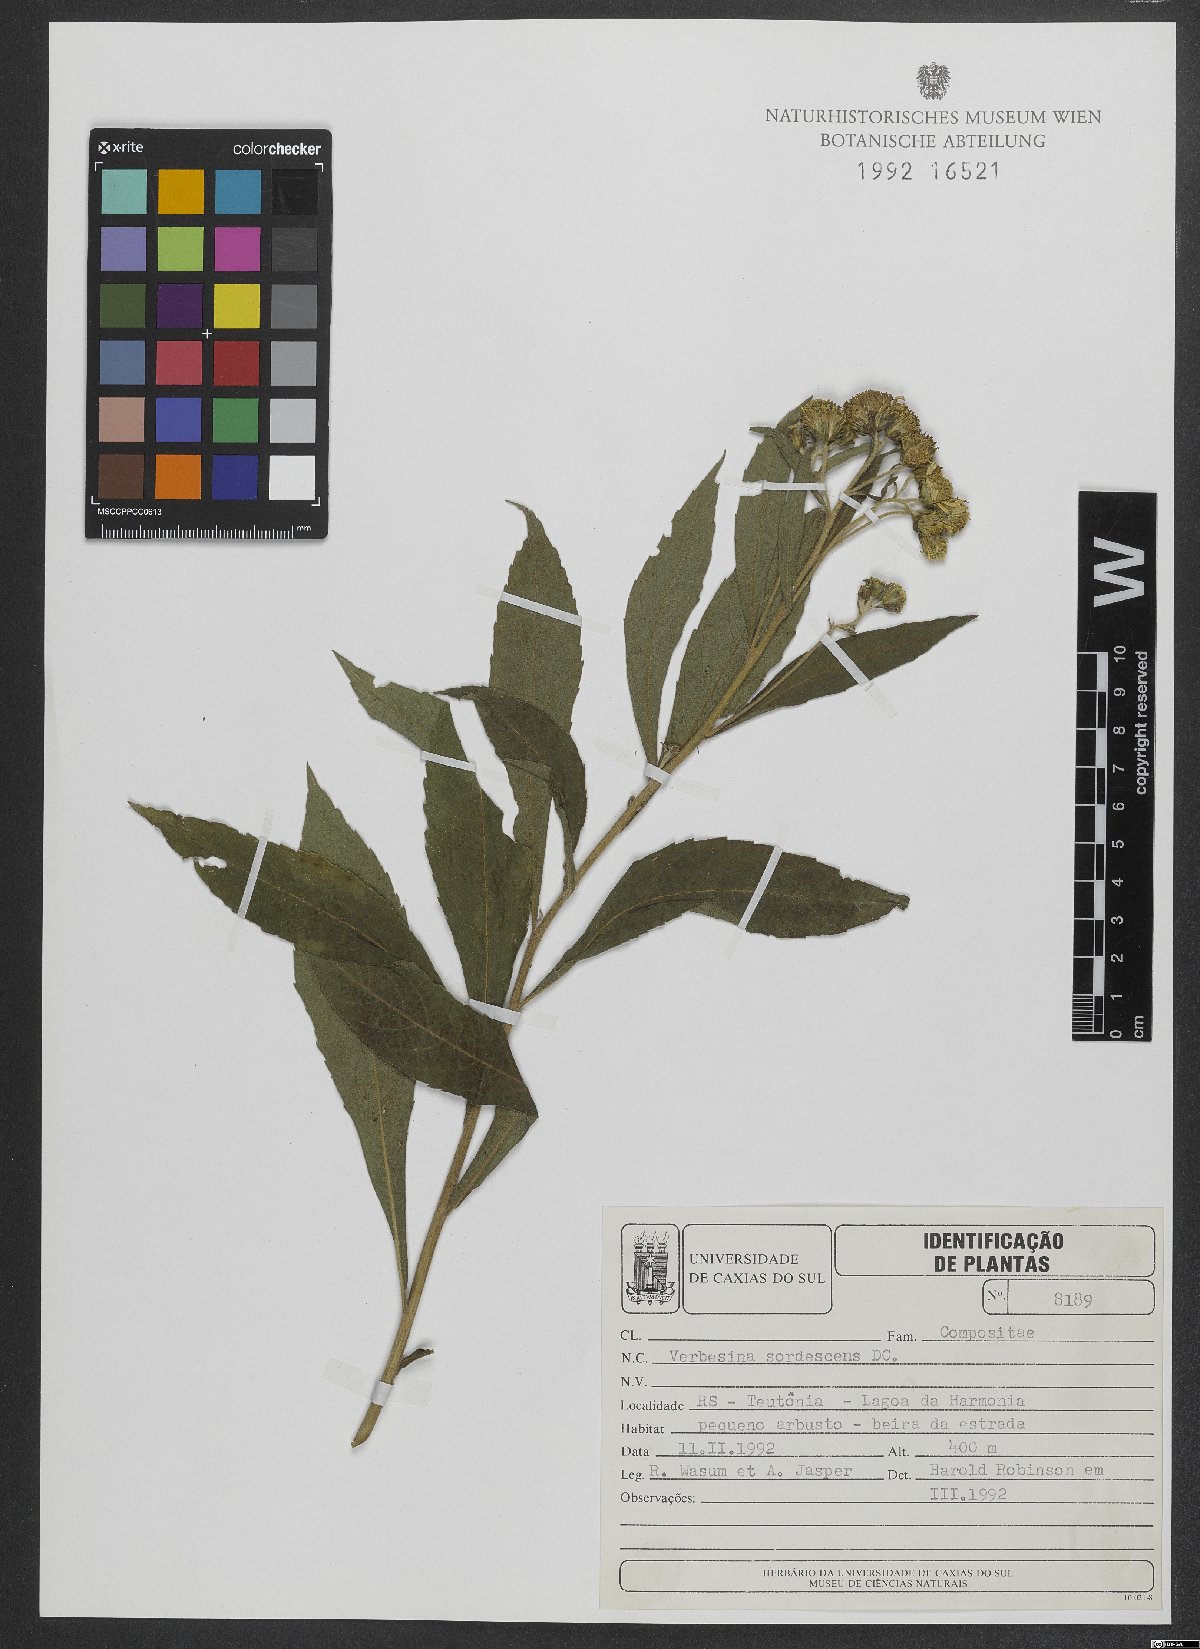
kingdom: Plantae
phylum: Tracheophyta
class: Magnoliopsida
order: Asterales
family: Asteraceae
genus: Verbesina
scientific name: Verbesina sordescens
